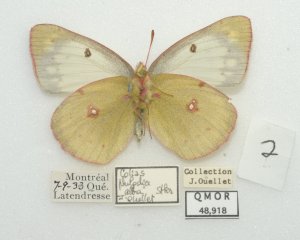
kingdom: Animalia
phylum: Arthropoda
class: Insecta
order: Lepidoptera
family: Pieridae
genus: Colias
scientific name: Colias philodice
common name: Clouded Sulphur
